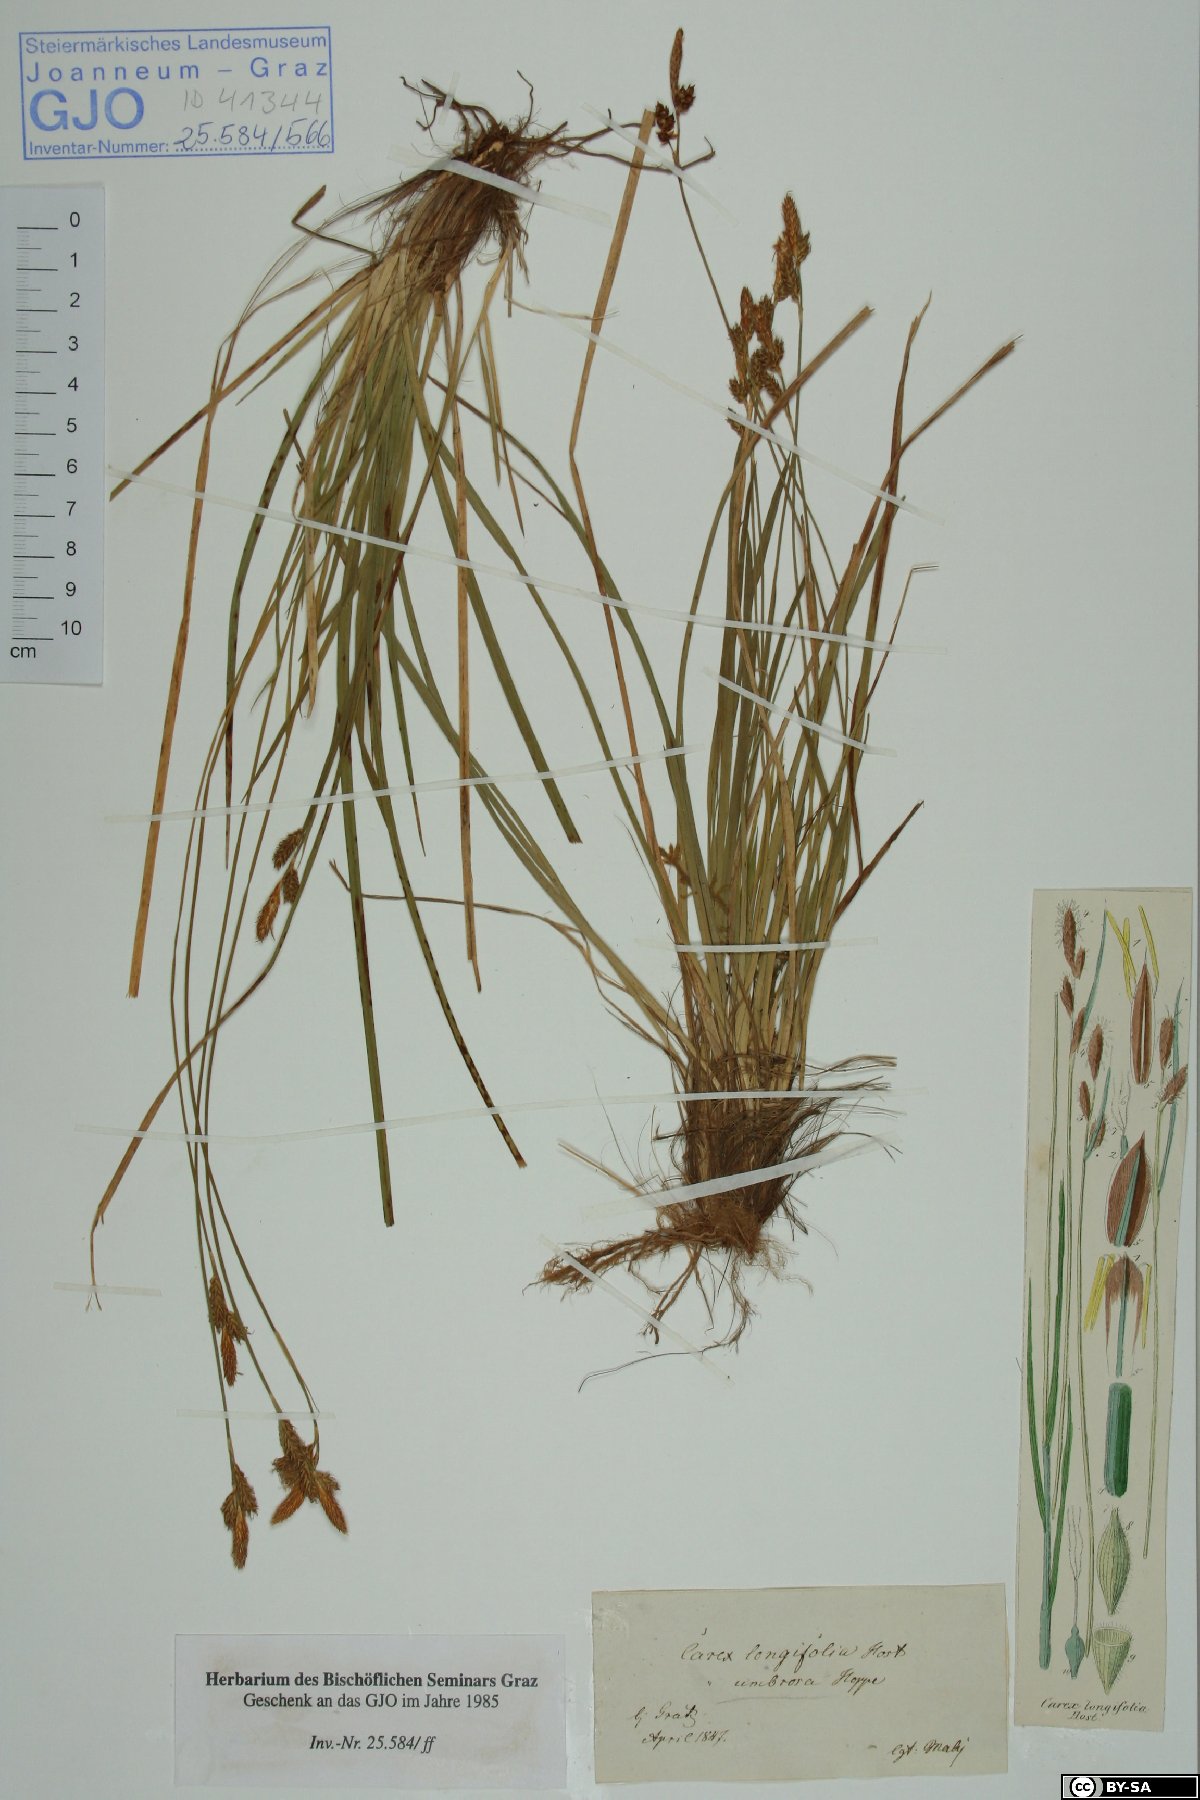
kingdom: Plantae
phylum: Tracheophyta
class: Liliopsida
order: Poales
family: Cyperaceae
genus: Carex
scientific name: Carex umbrosa
